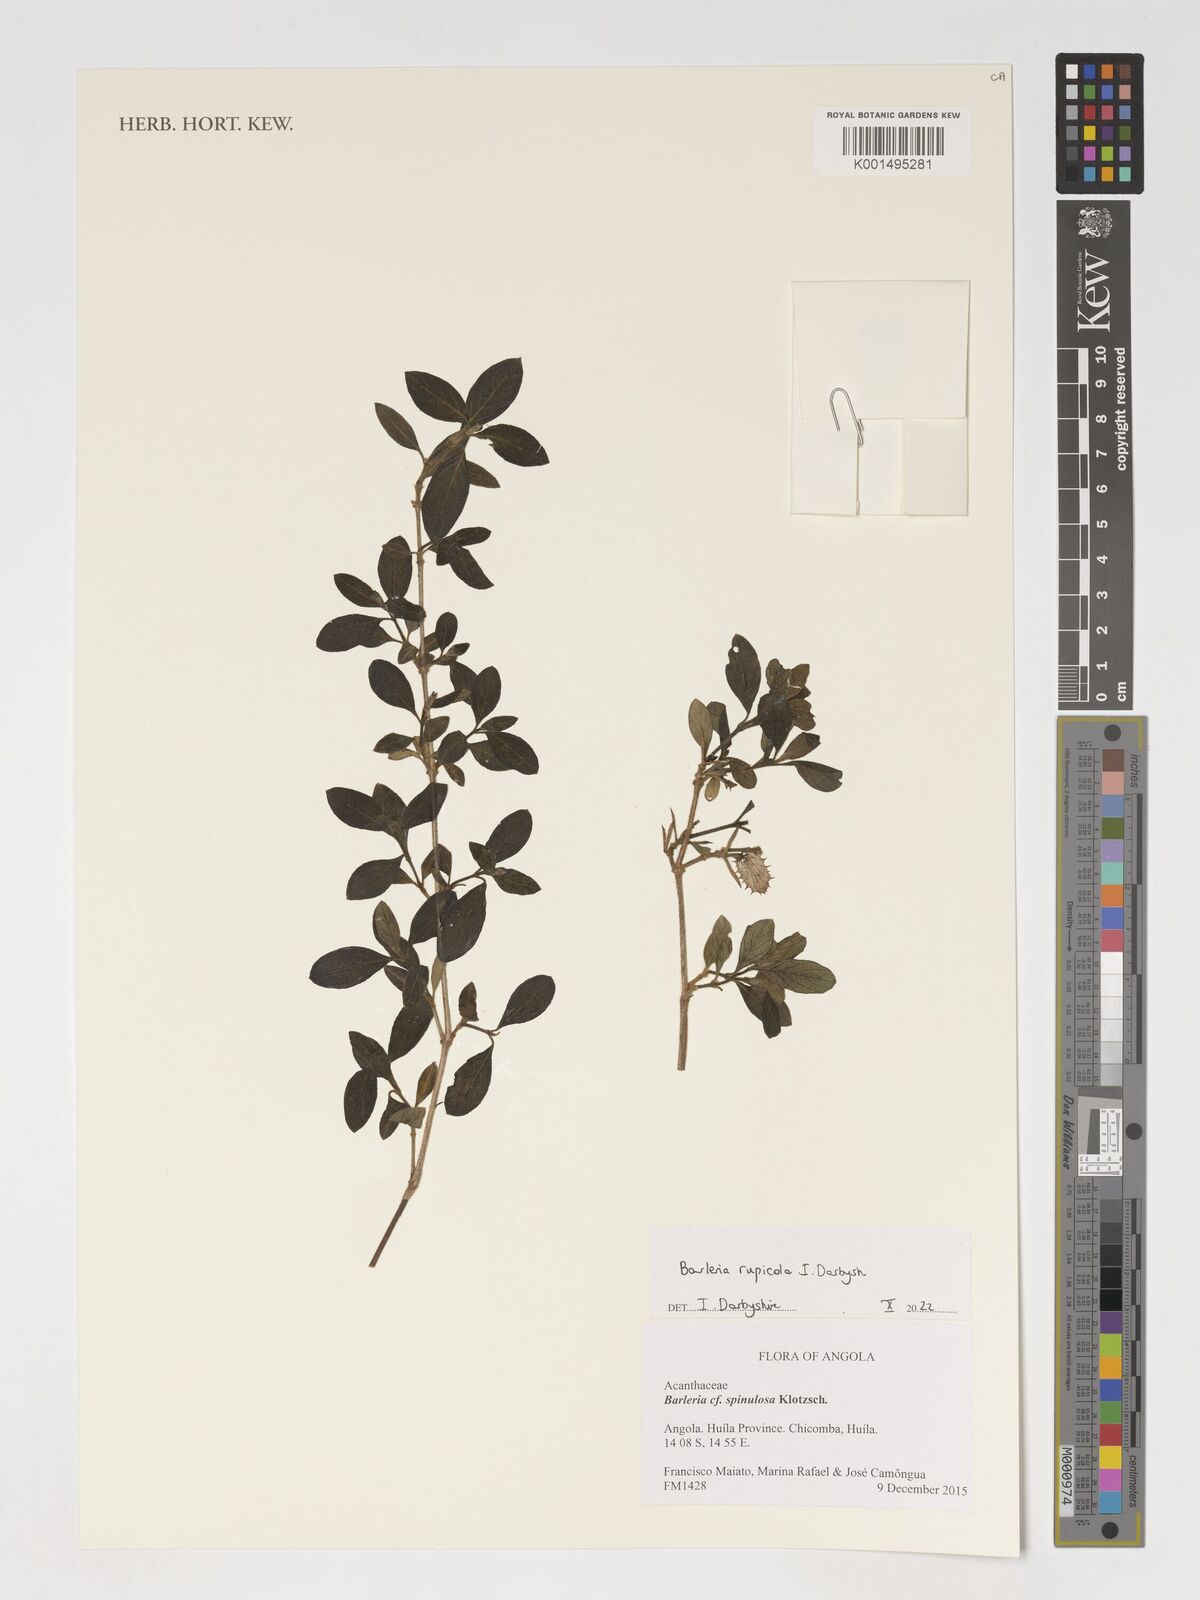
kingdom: Plantae
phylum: Tracheophyta
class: Magnoliopsida
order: Lamiales
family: Acanthaceae
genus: Barleria
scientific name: Barleria
